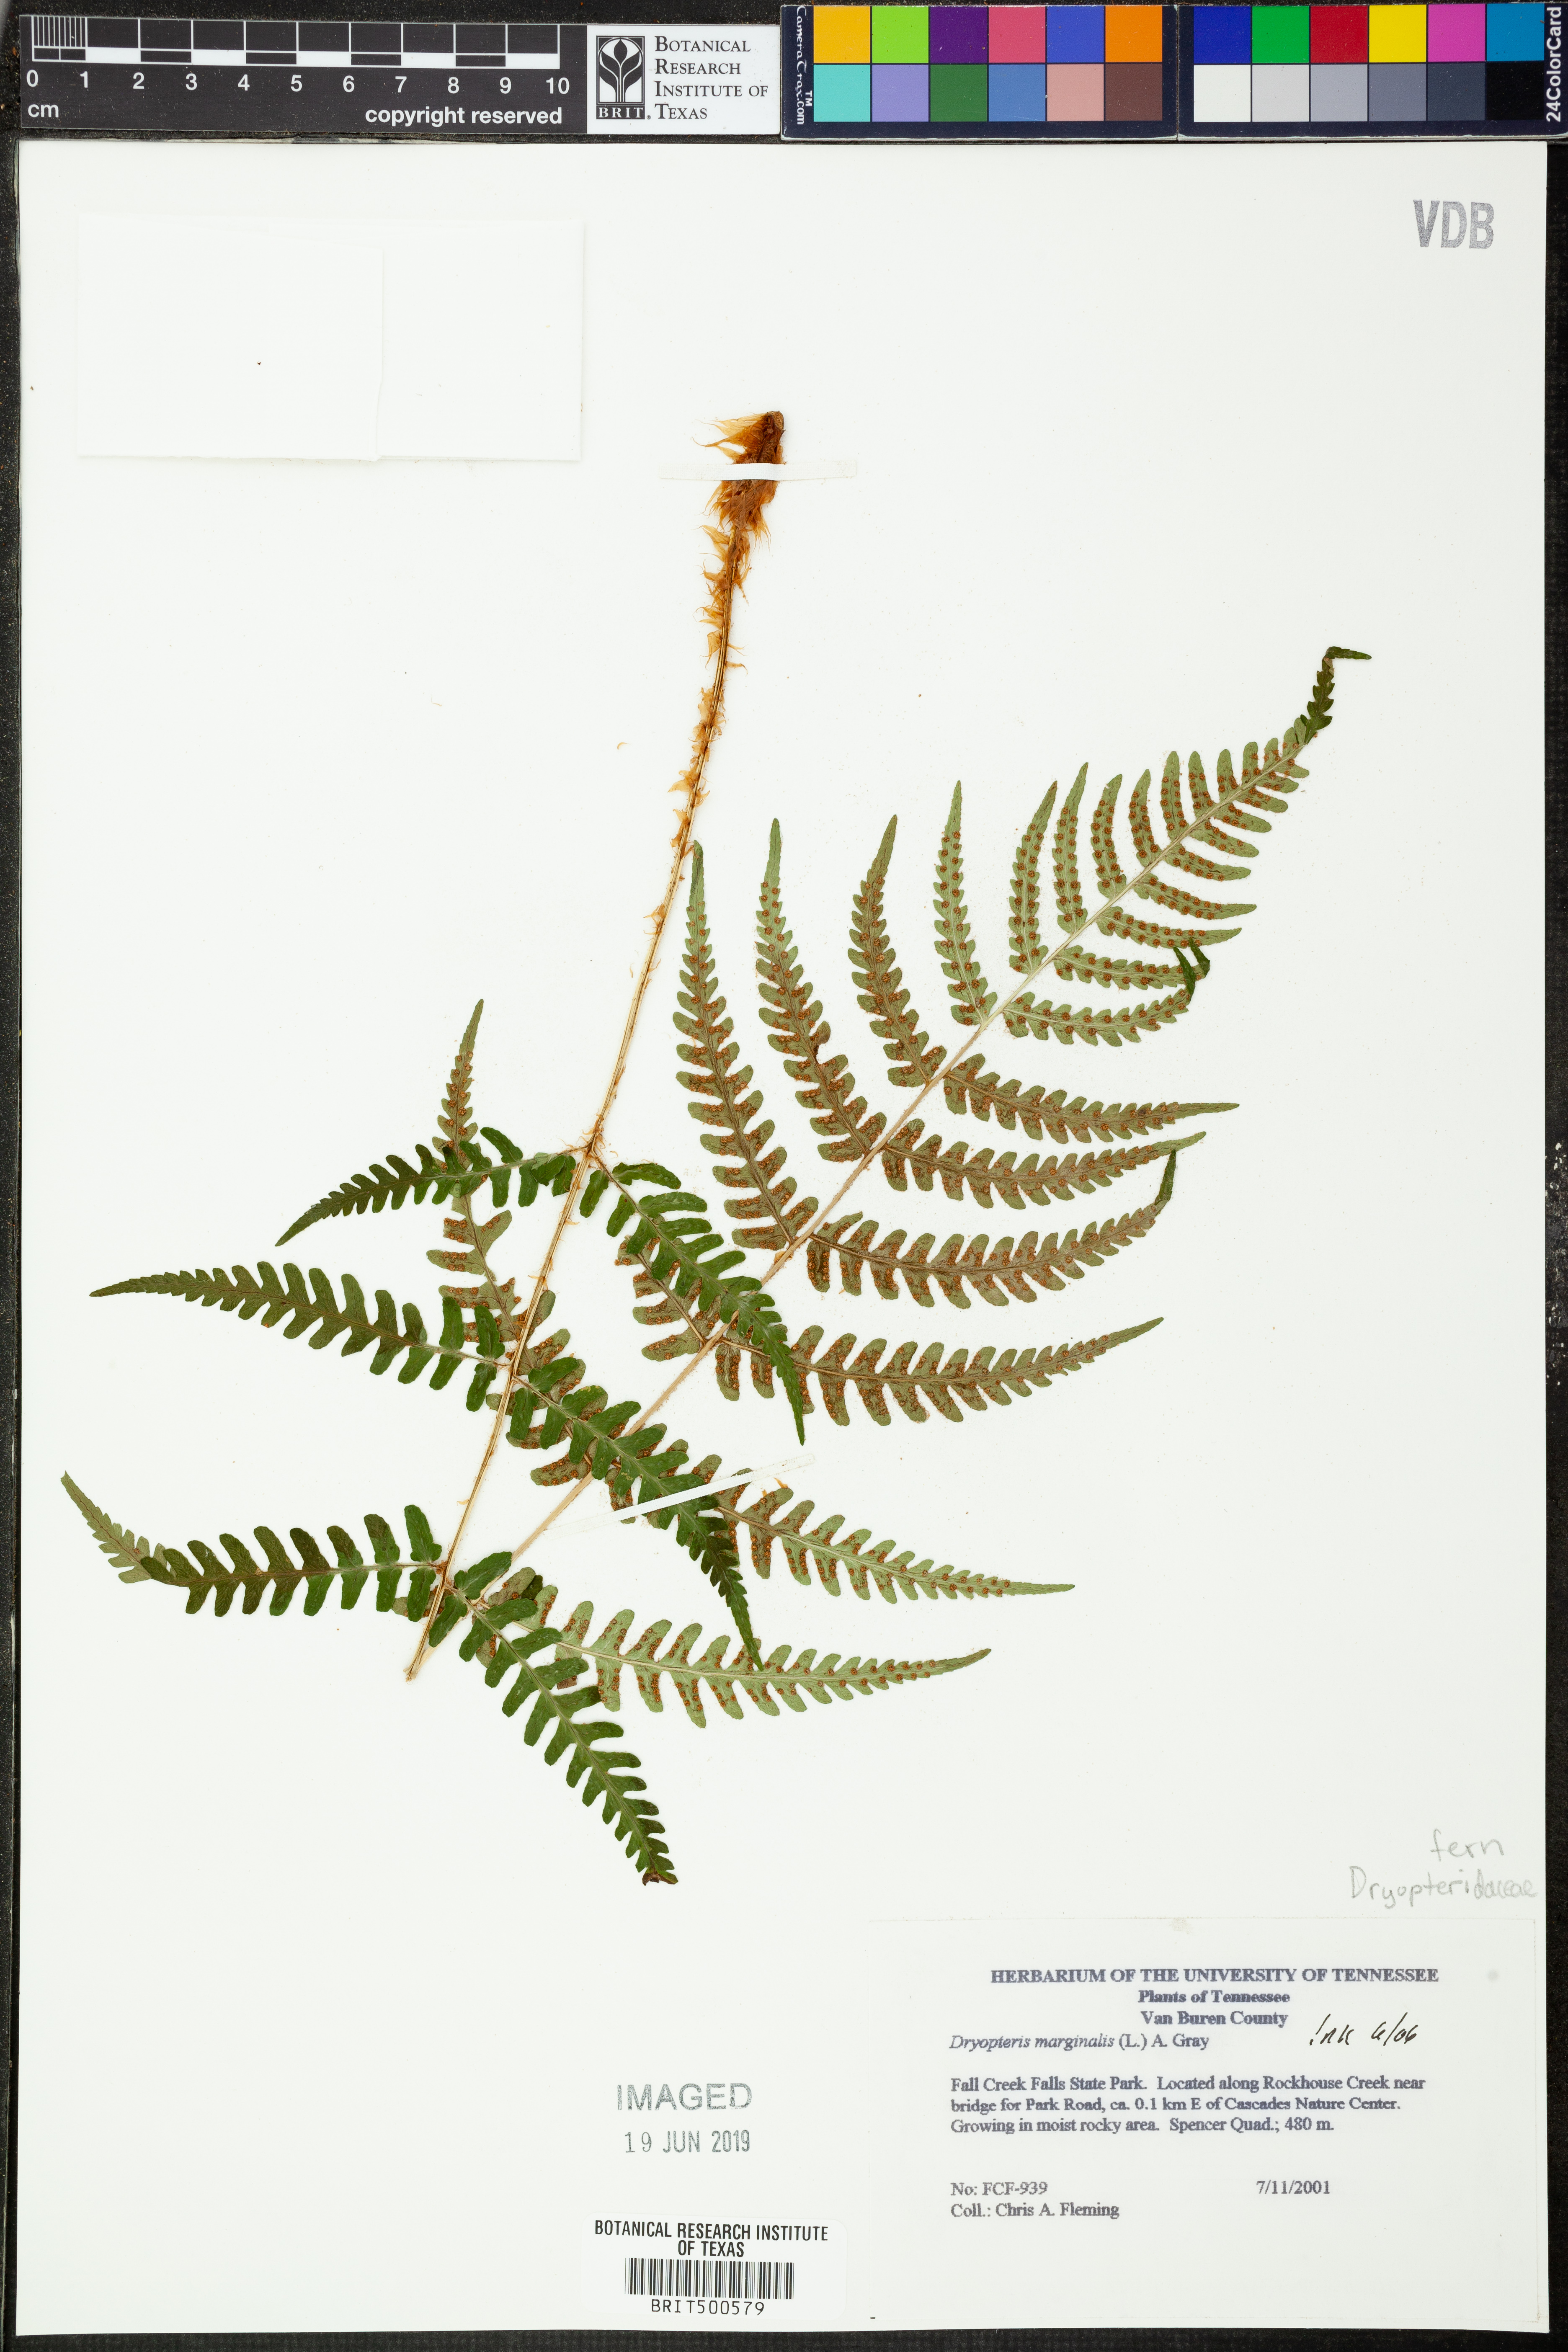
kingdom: Plantae
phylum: Tracheophyta
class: Polypodiopsida
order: Polypodiales
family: Dryopteridaceae
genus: Dryopteris
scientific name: Dryopteris marginalis
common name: Marginal wood fern
